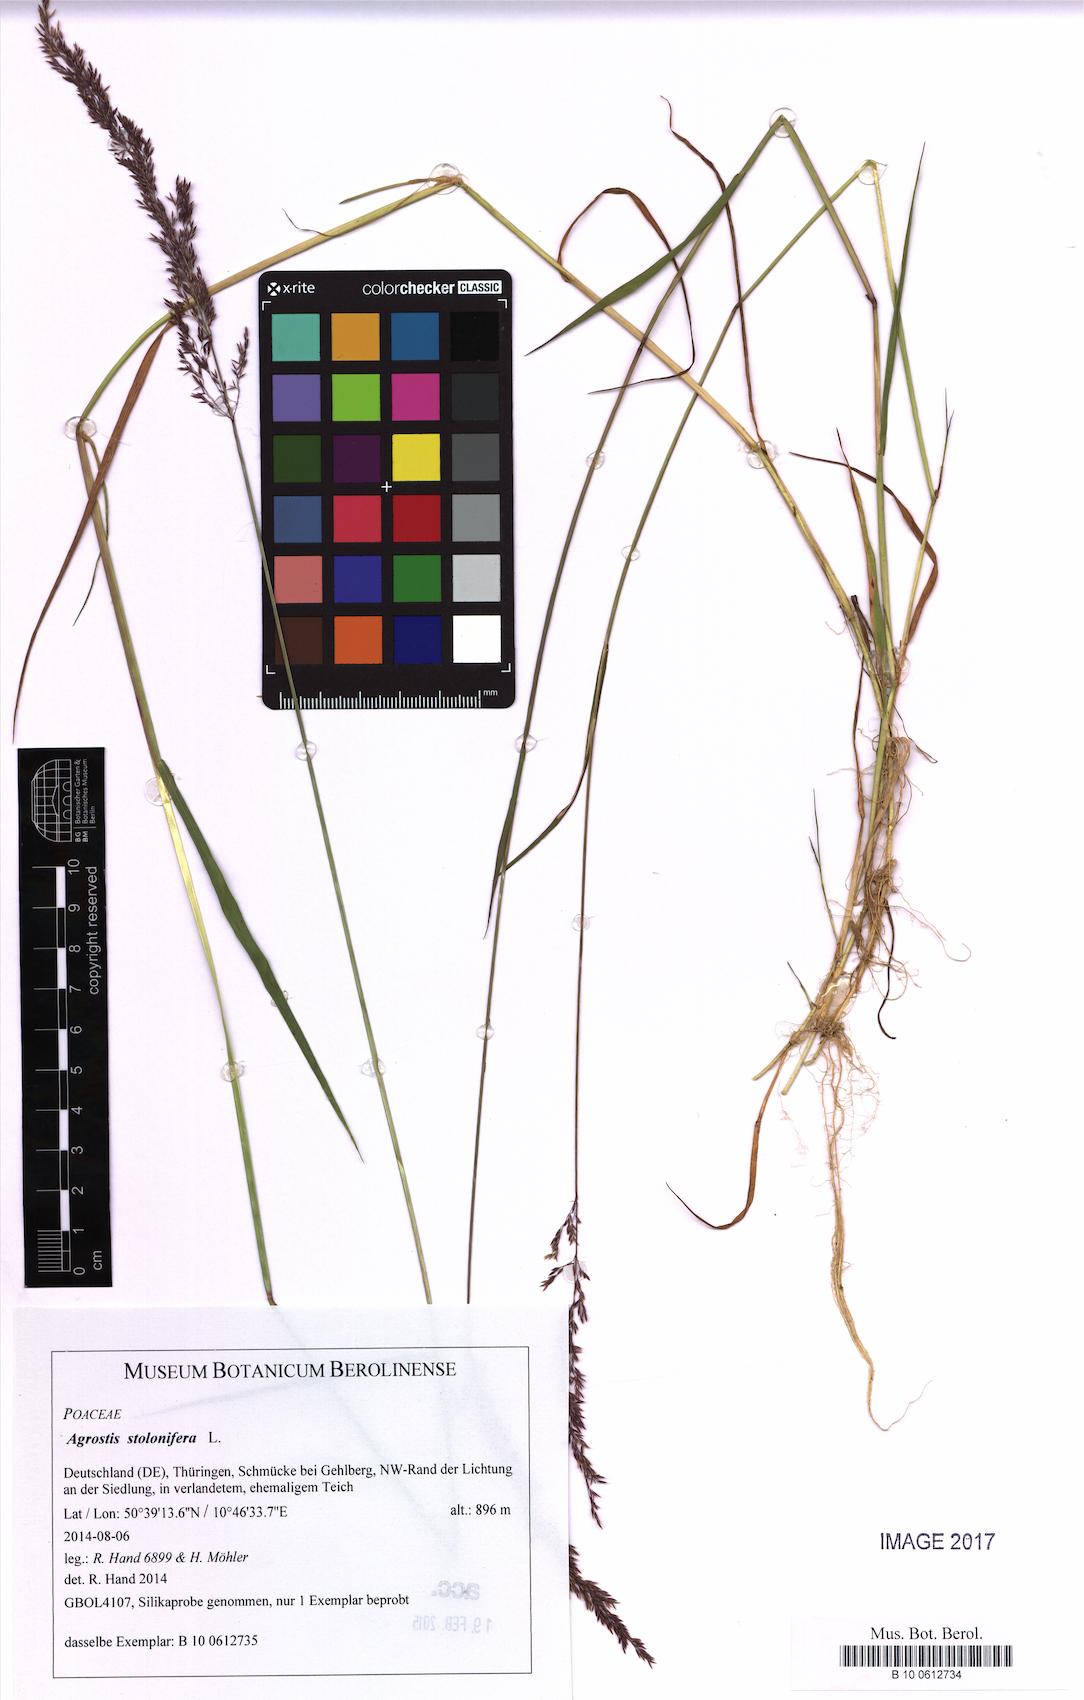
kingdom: Plantae
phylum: Tracheophyta
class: Liliopsida
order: Poales
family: Poaceae
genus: Agrostis
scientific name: Agrostis stolonifera
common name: Creeping bentgrass
